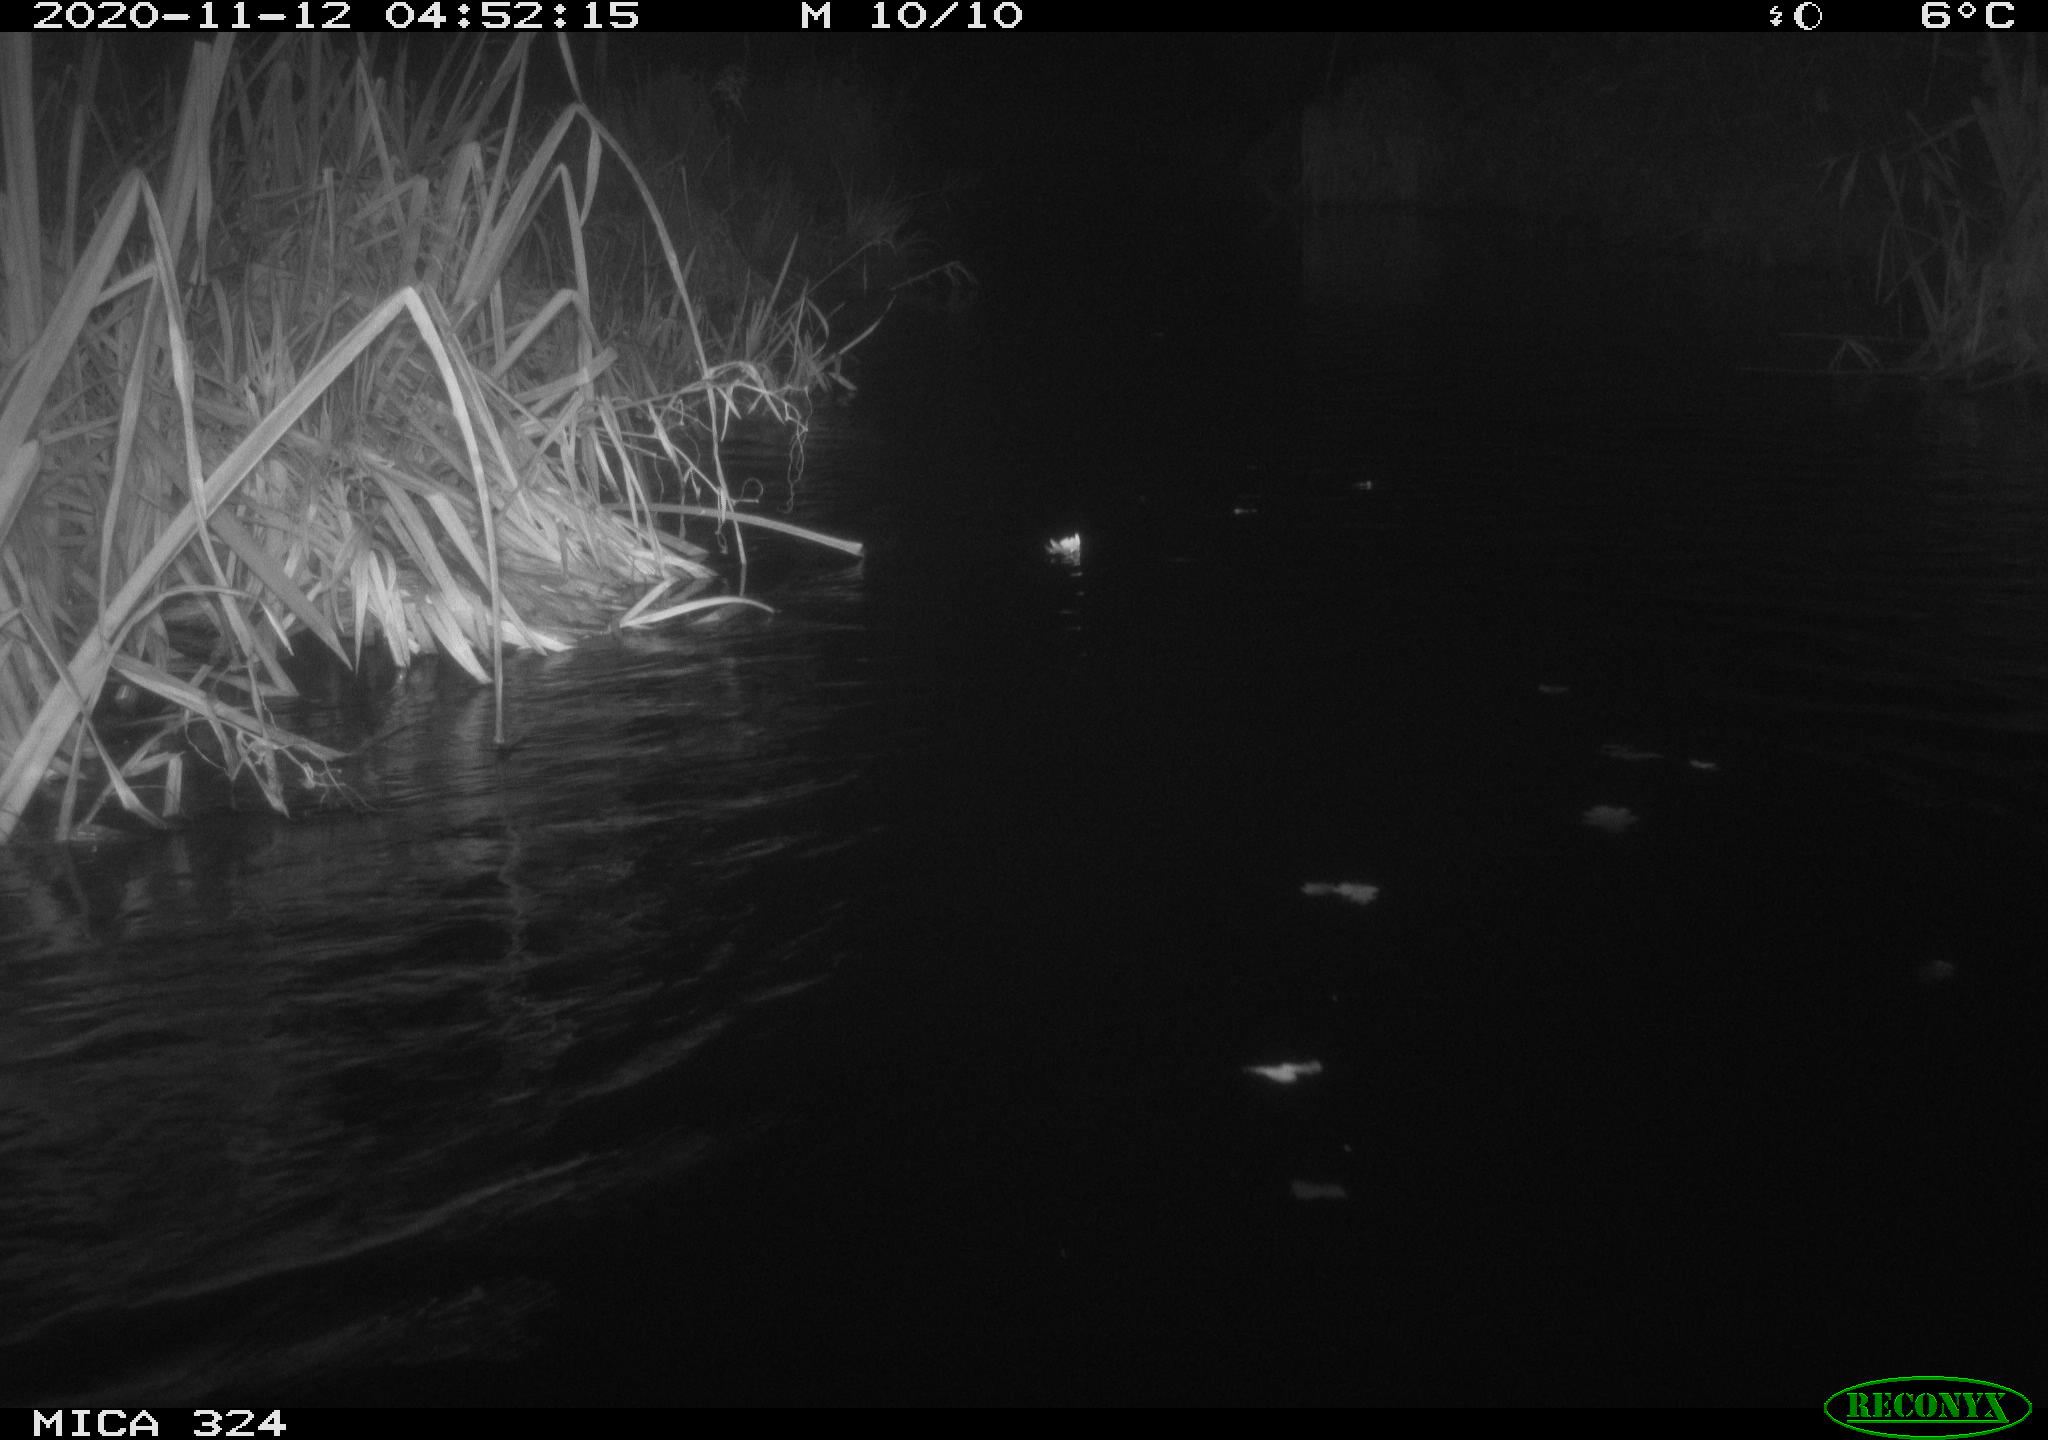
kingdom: Animalia
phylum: Chordata
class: Mammalia
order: Rodentia
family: Cricetidae
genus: Ondatra
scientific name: Ondatra zibethicus
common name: Muskrat
